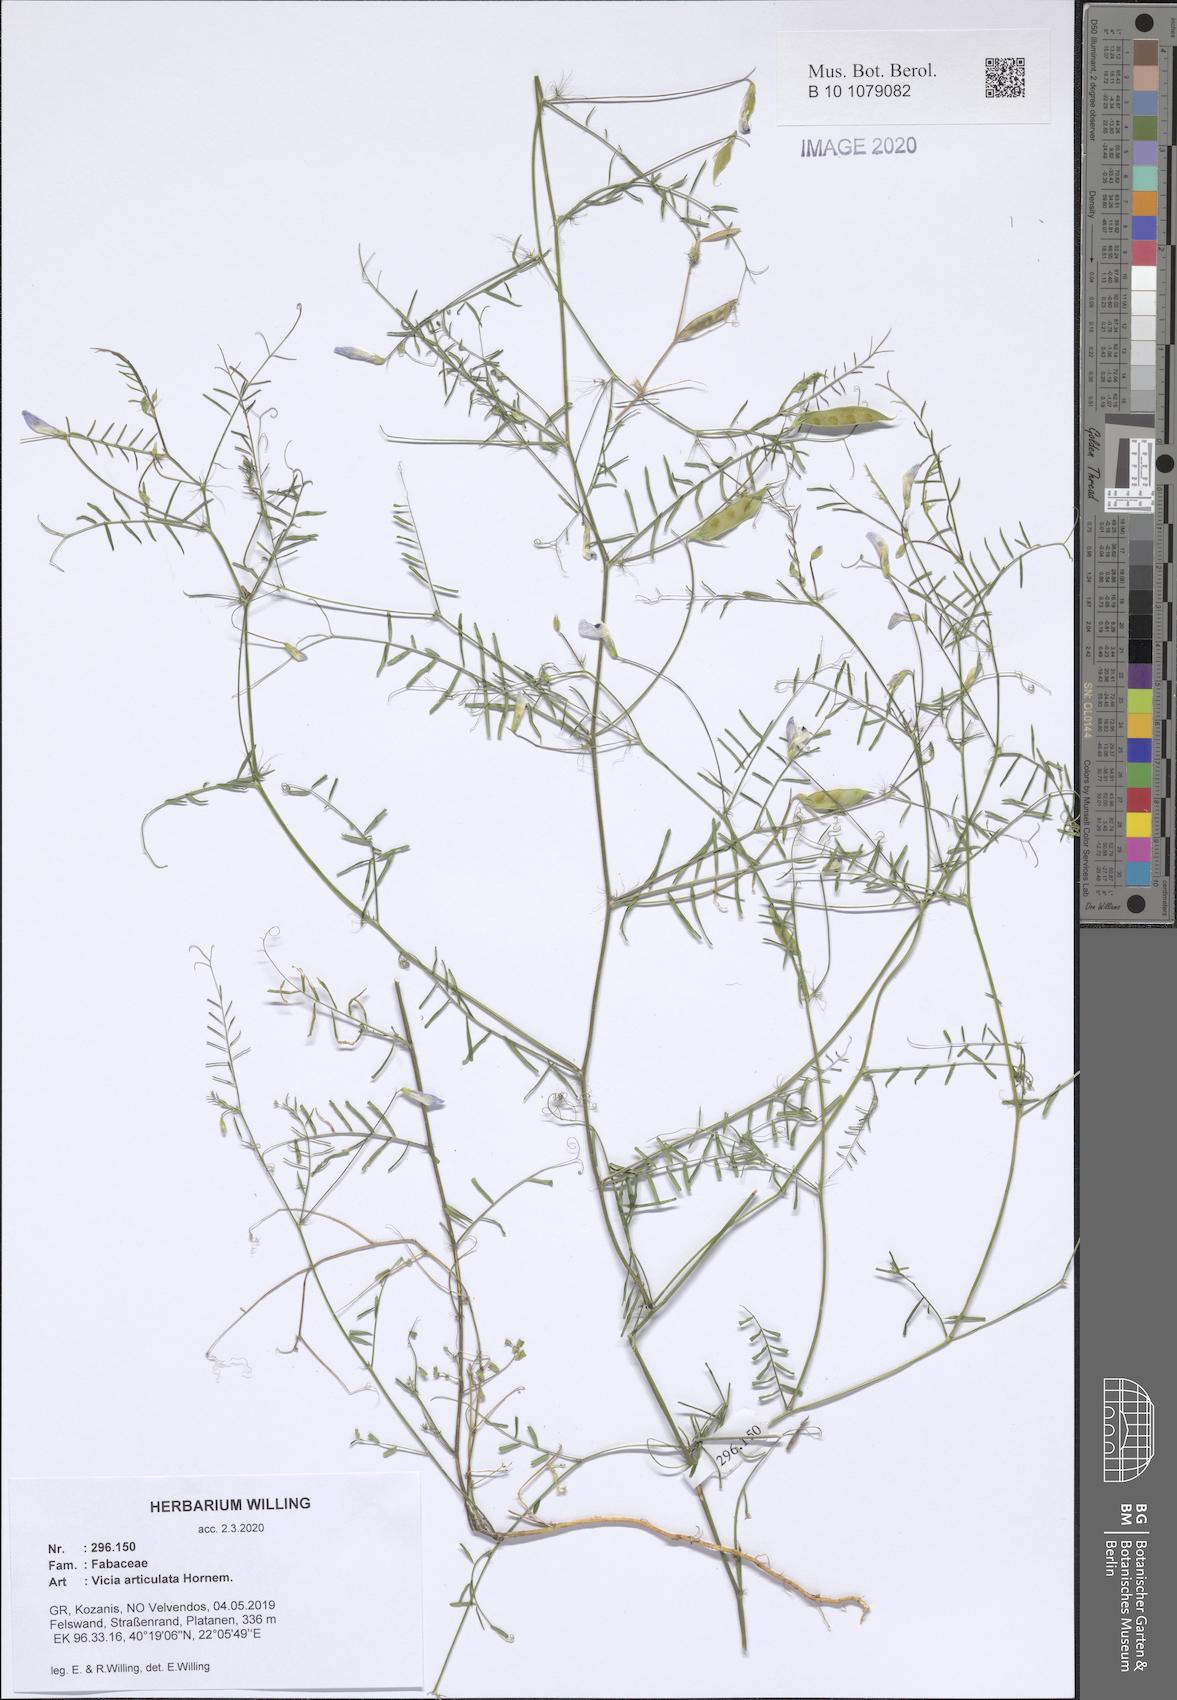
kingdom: Plantae
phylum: Tracheophyta
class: Magnoliopsida
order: Fabales
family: Fabaceae
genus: Vicia
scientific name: Vicia articulata
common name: Monantha vetch
